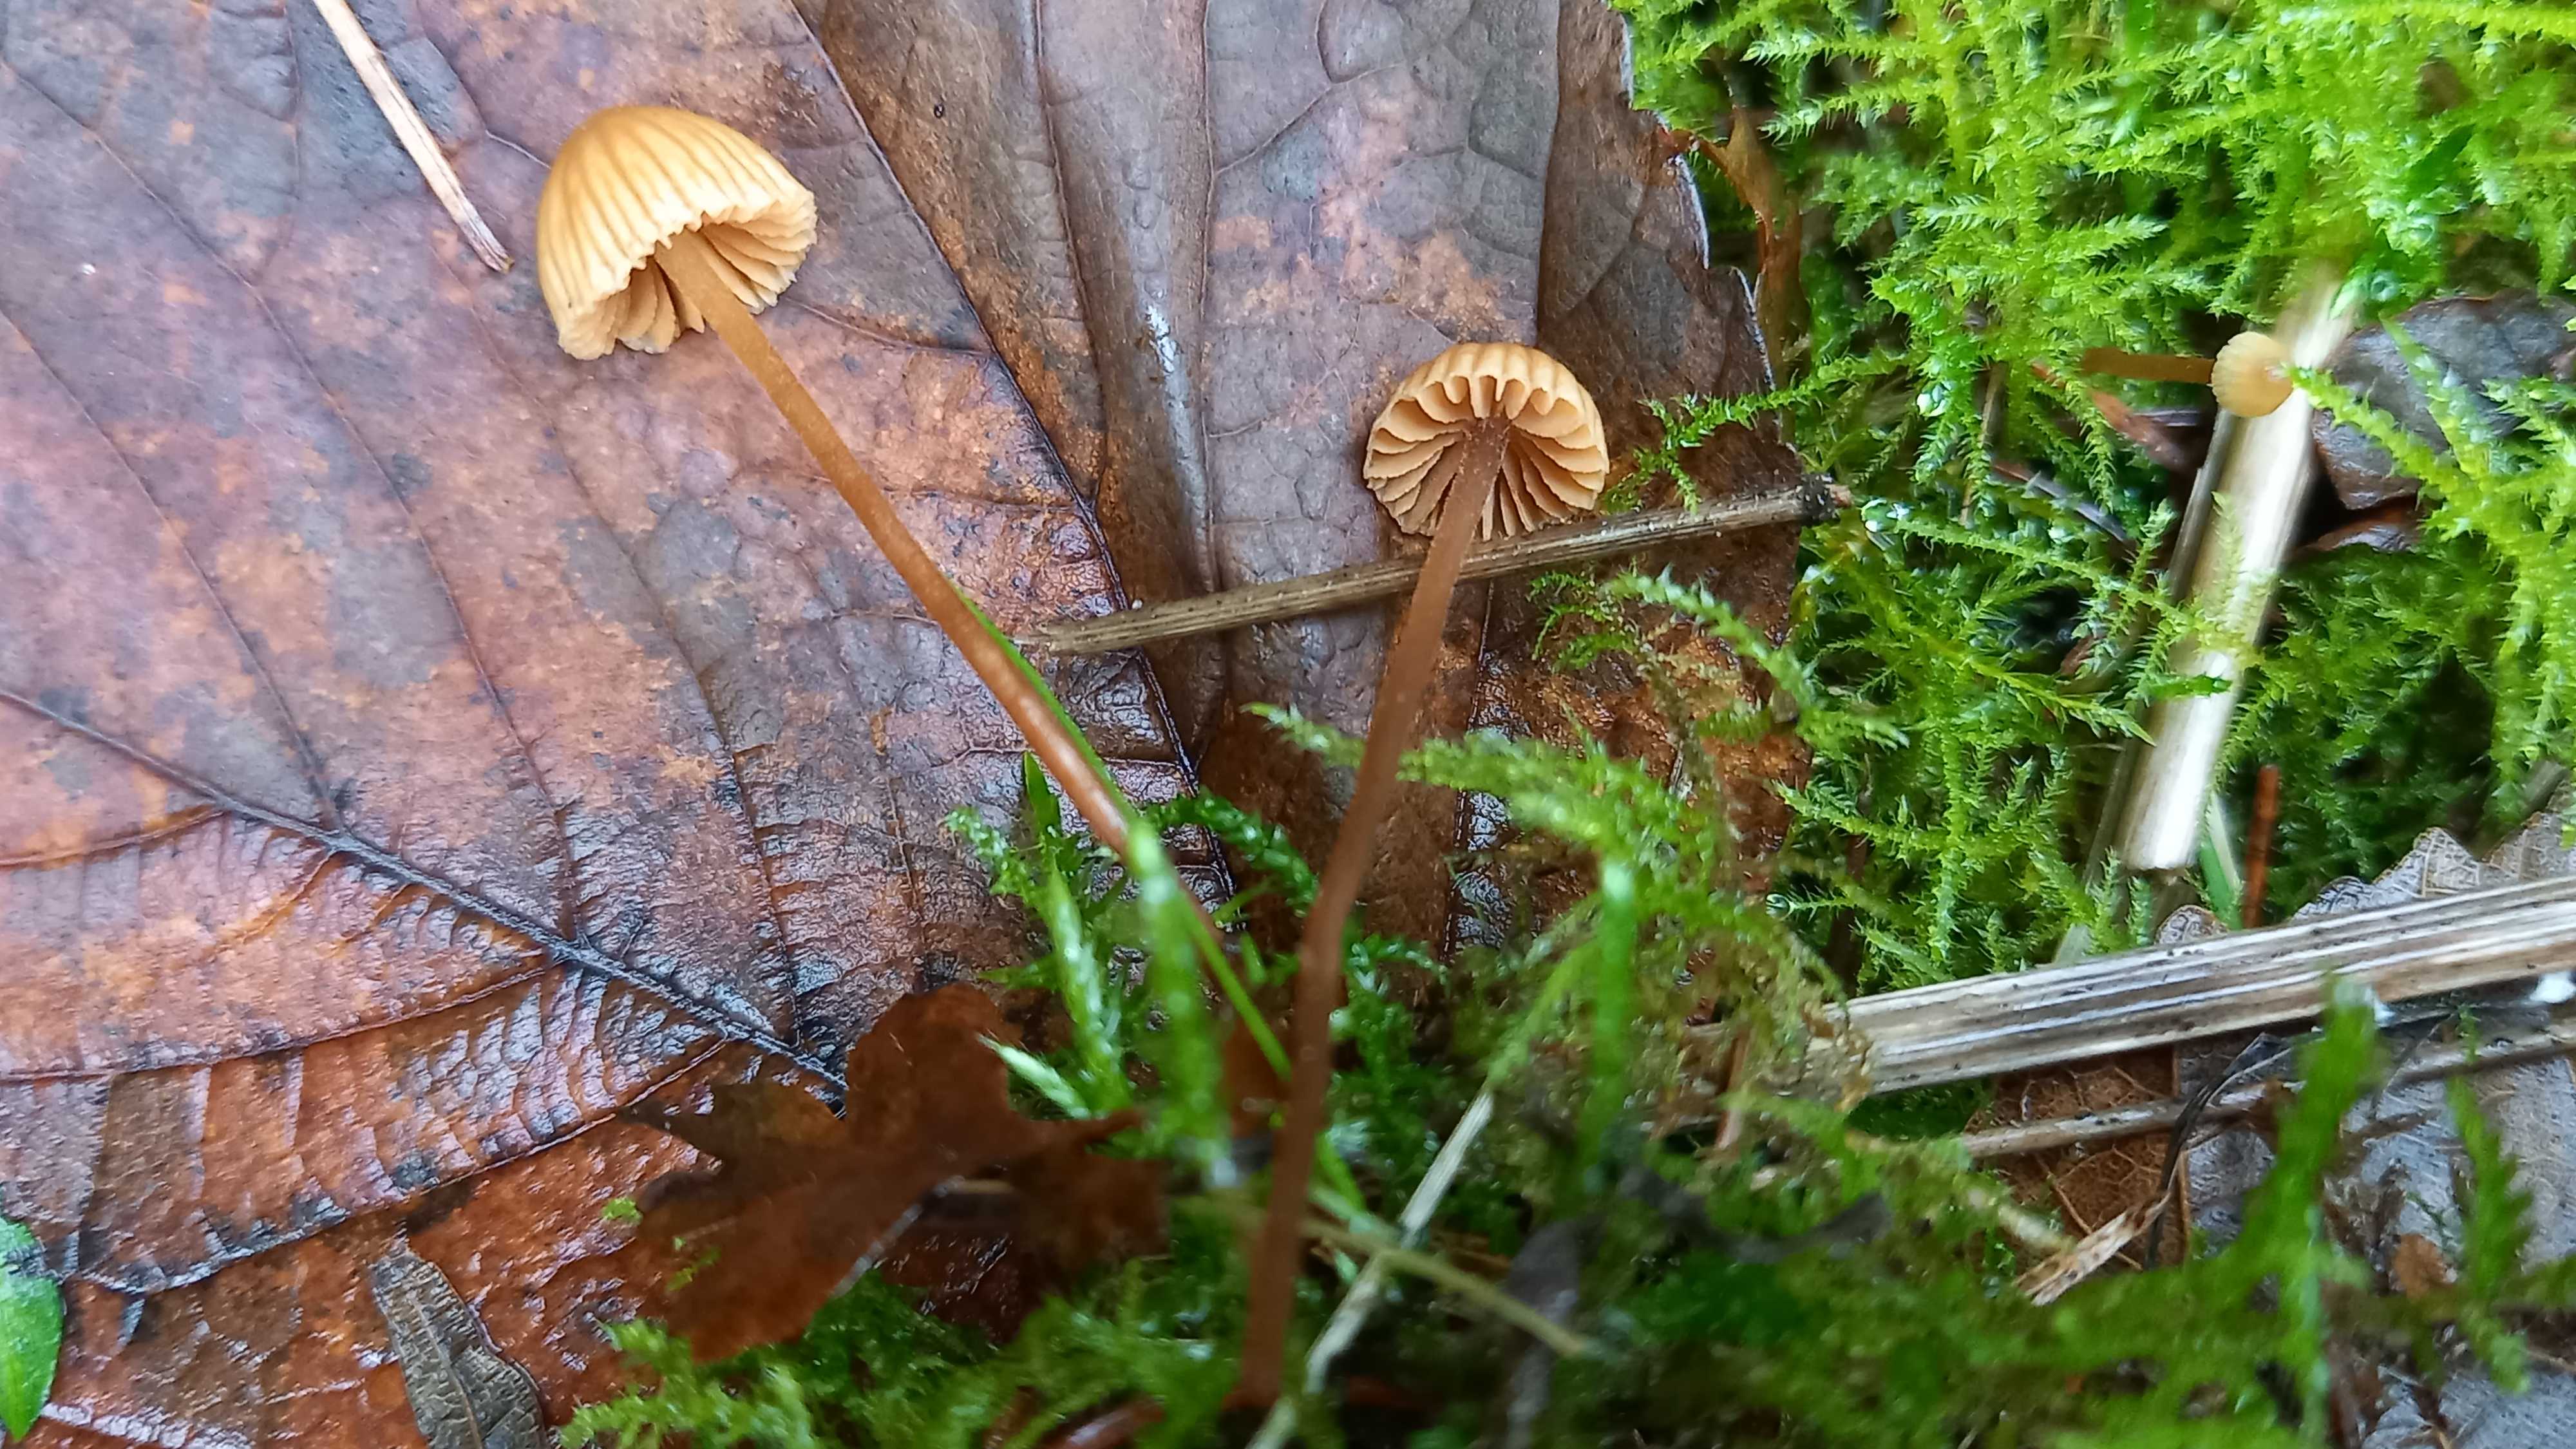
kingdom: Fungi
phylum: Basidiomycota
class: Agaricomycetes
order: Agaricales
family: Hymenogastraceae
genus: Galerina
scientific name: Galerina
